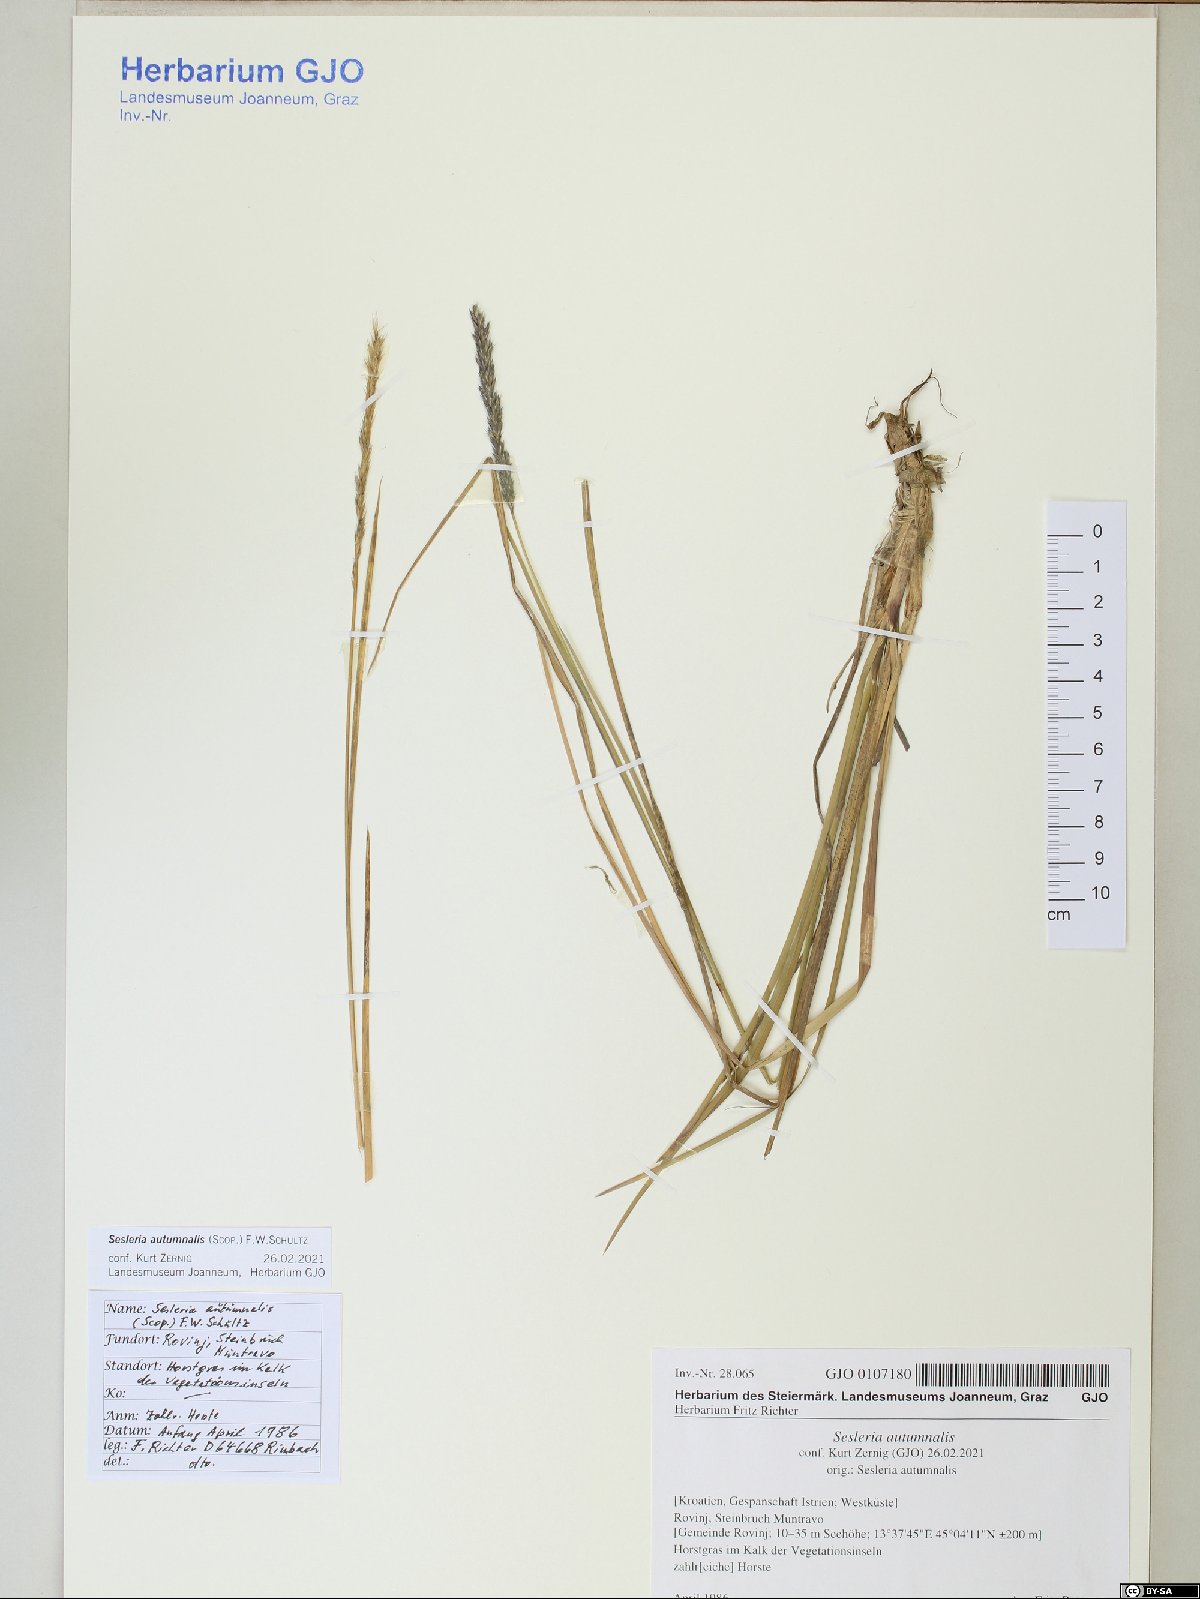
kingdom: Plantae
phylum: Tracheophyta
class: Liliopsida
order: Poales
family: Poaceae
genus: Sesleria
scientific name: Sesleria autumnalis
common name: Autumn moor grass
